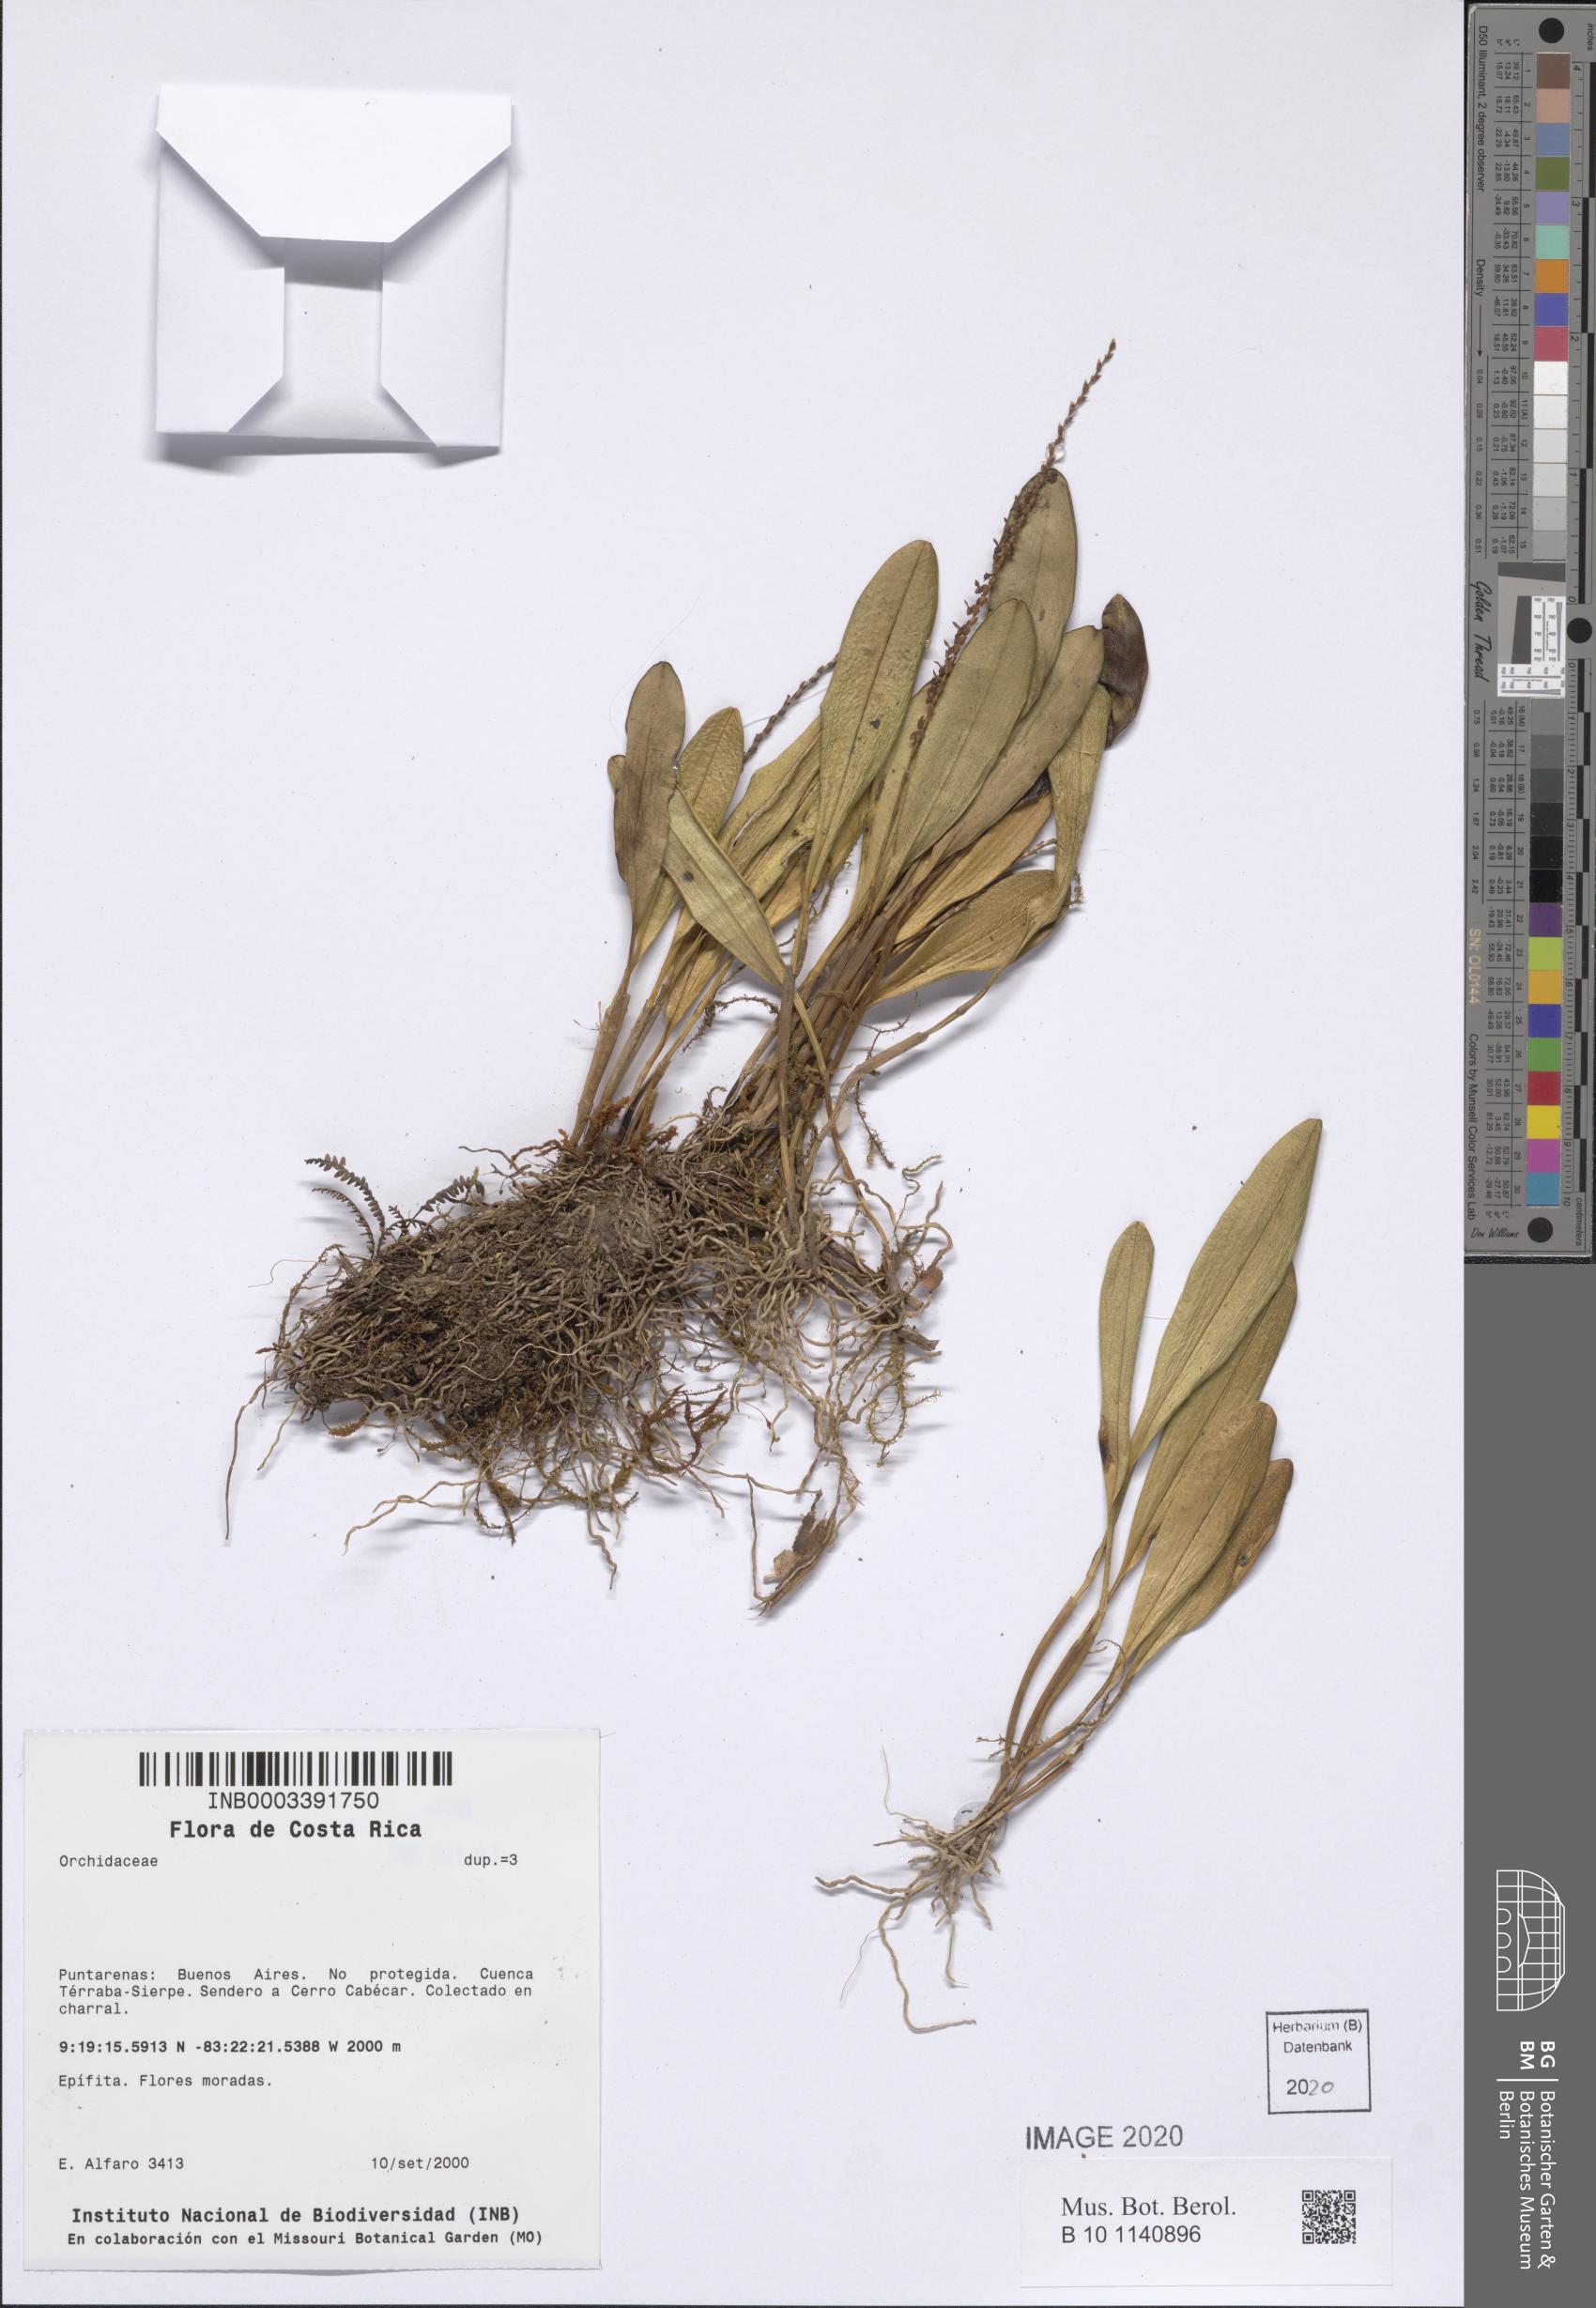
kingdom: Plantae
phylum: Tracheophyta
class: Liliopsida
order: Asparagales
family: Orchidaceae
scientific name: Orchidaceae
